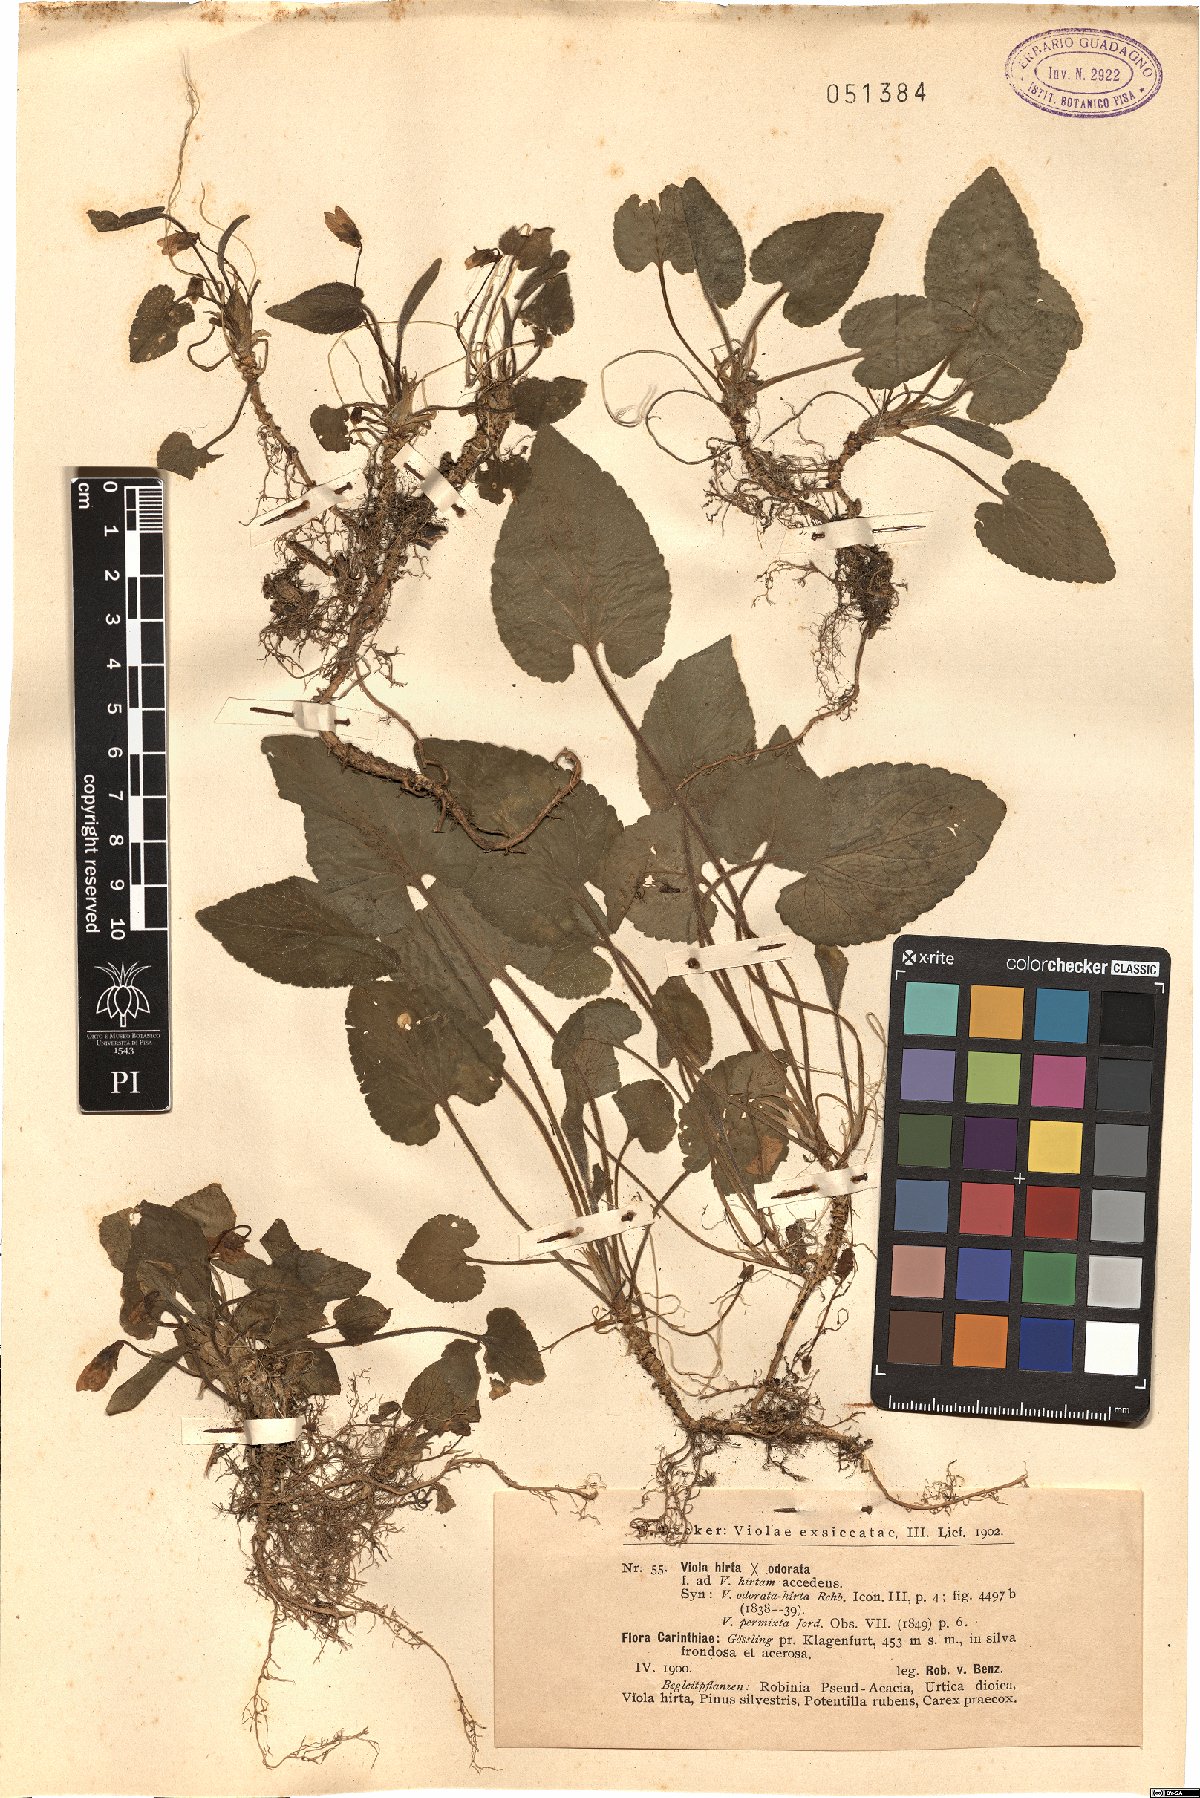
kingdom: Plantae
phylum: Tracheophyta
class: Magnoliopsida
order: Malpighiales
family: Violaceae
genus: Viola
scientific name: Viola suavis
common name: Russian violet
